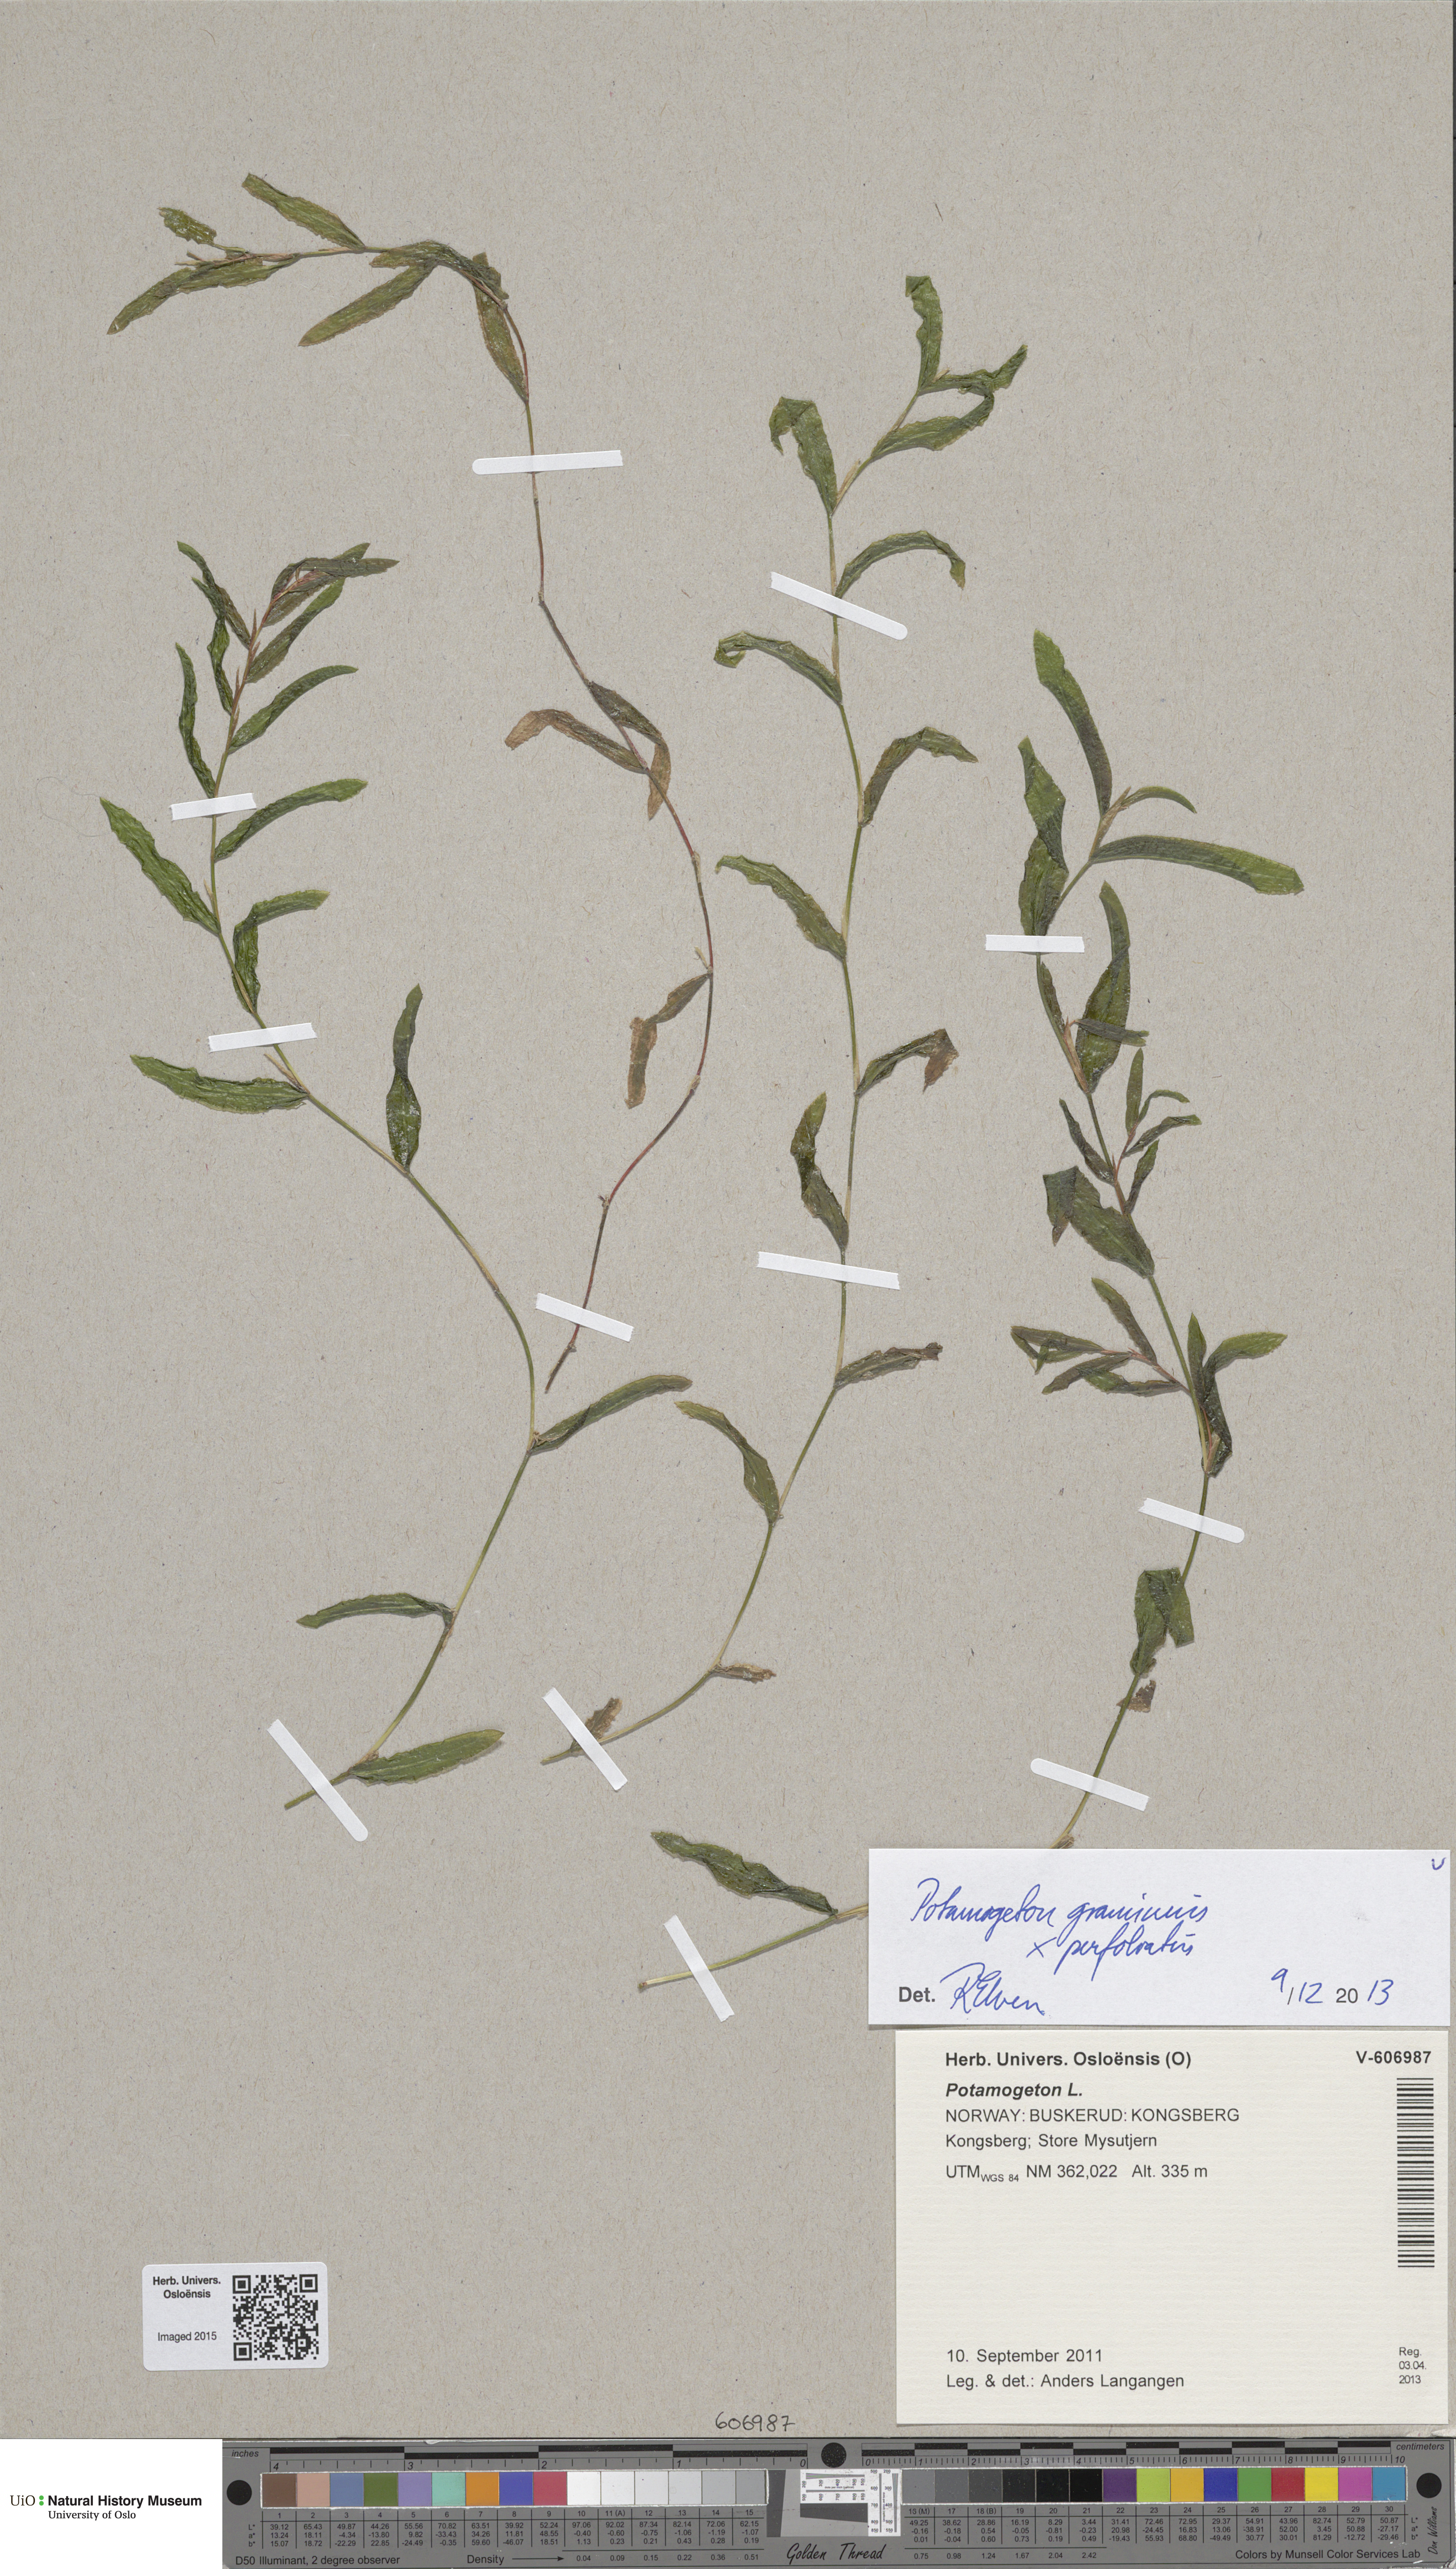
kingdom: Plantae
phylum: Tracheophyta
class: Liliopsida
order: Alismatales
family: Potamogetonaceae
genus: Potamogeton
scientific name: Potamogeton nitens
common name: Pondweed
